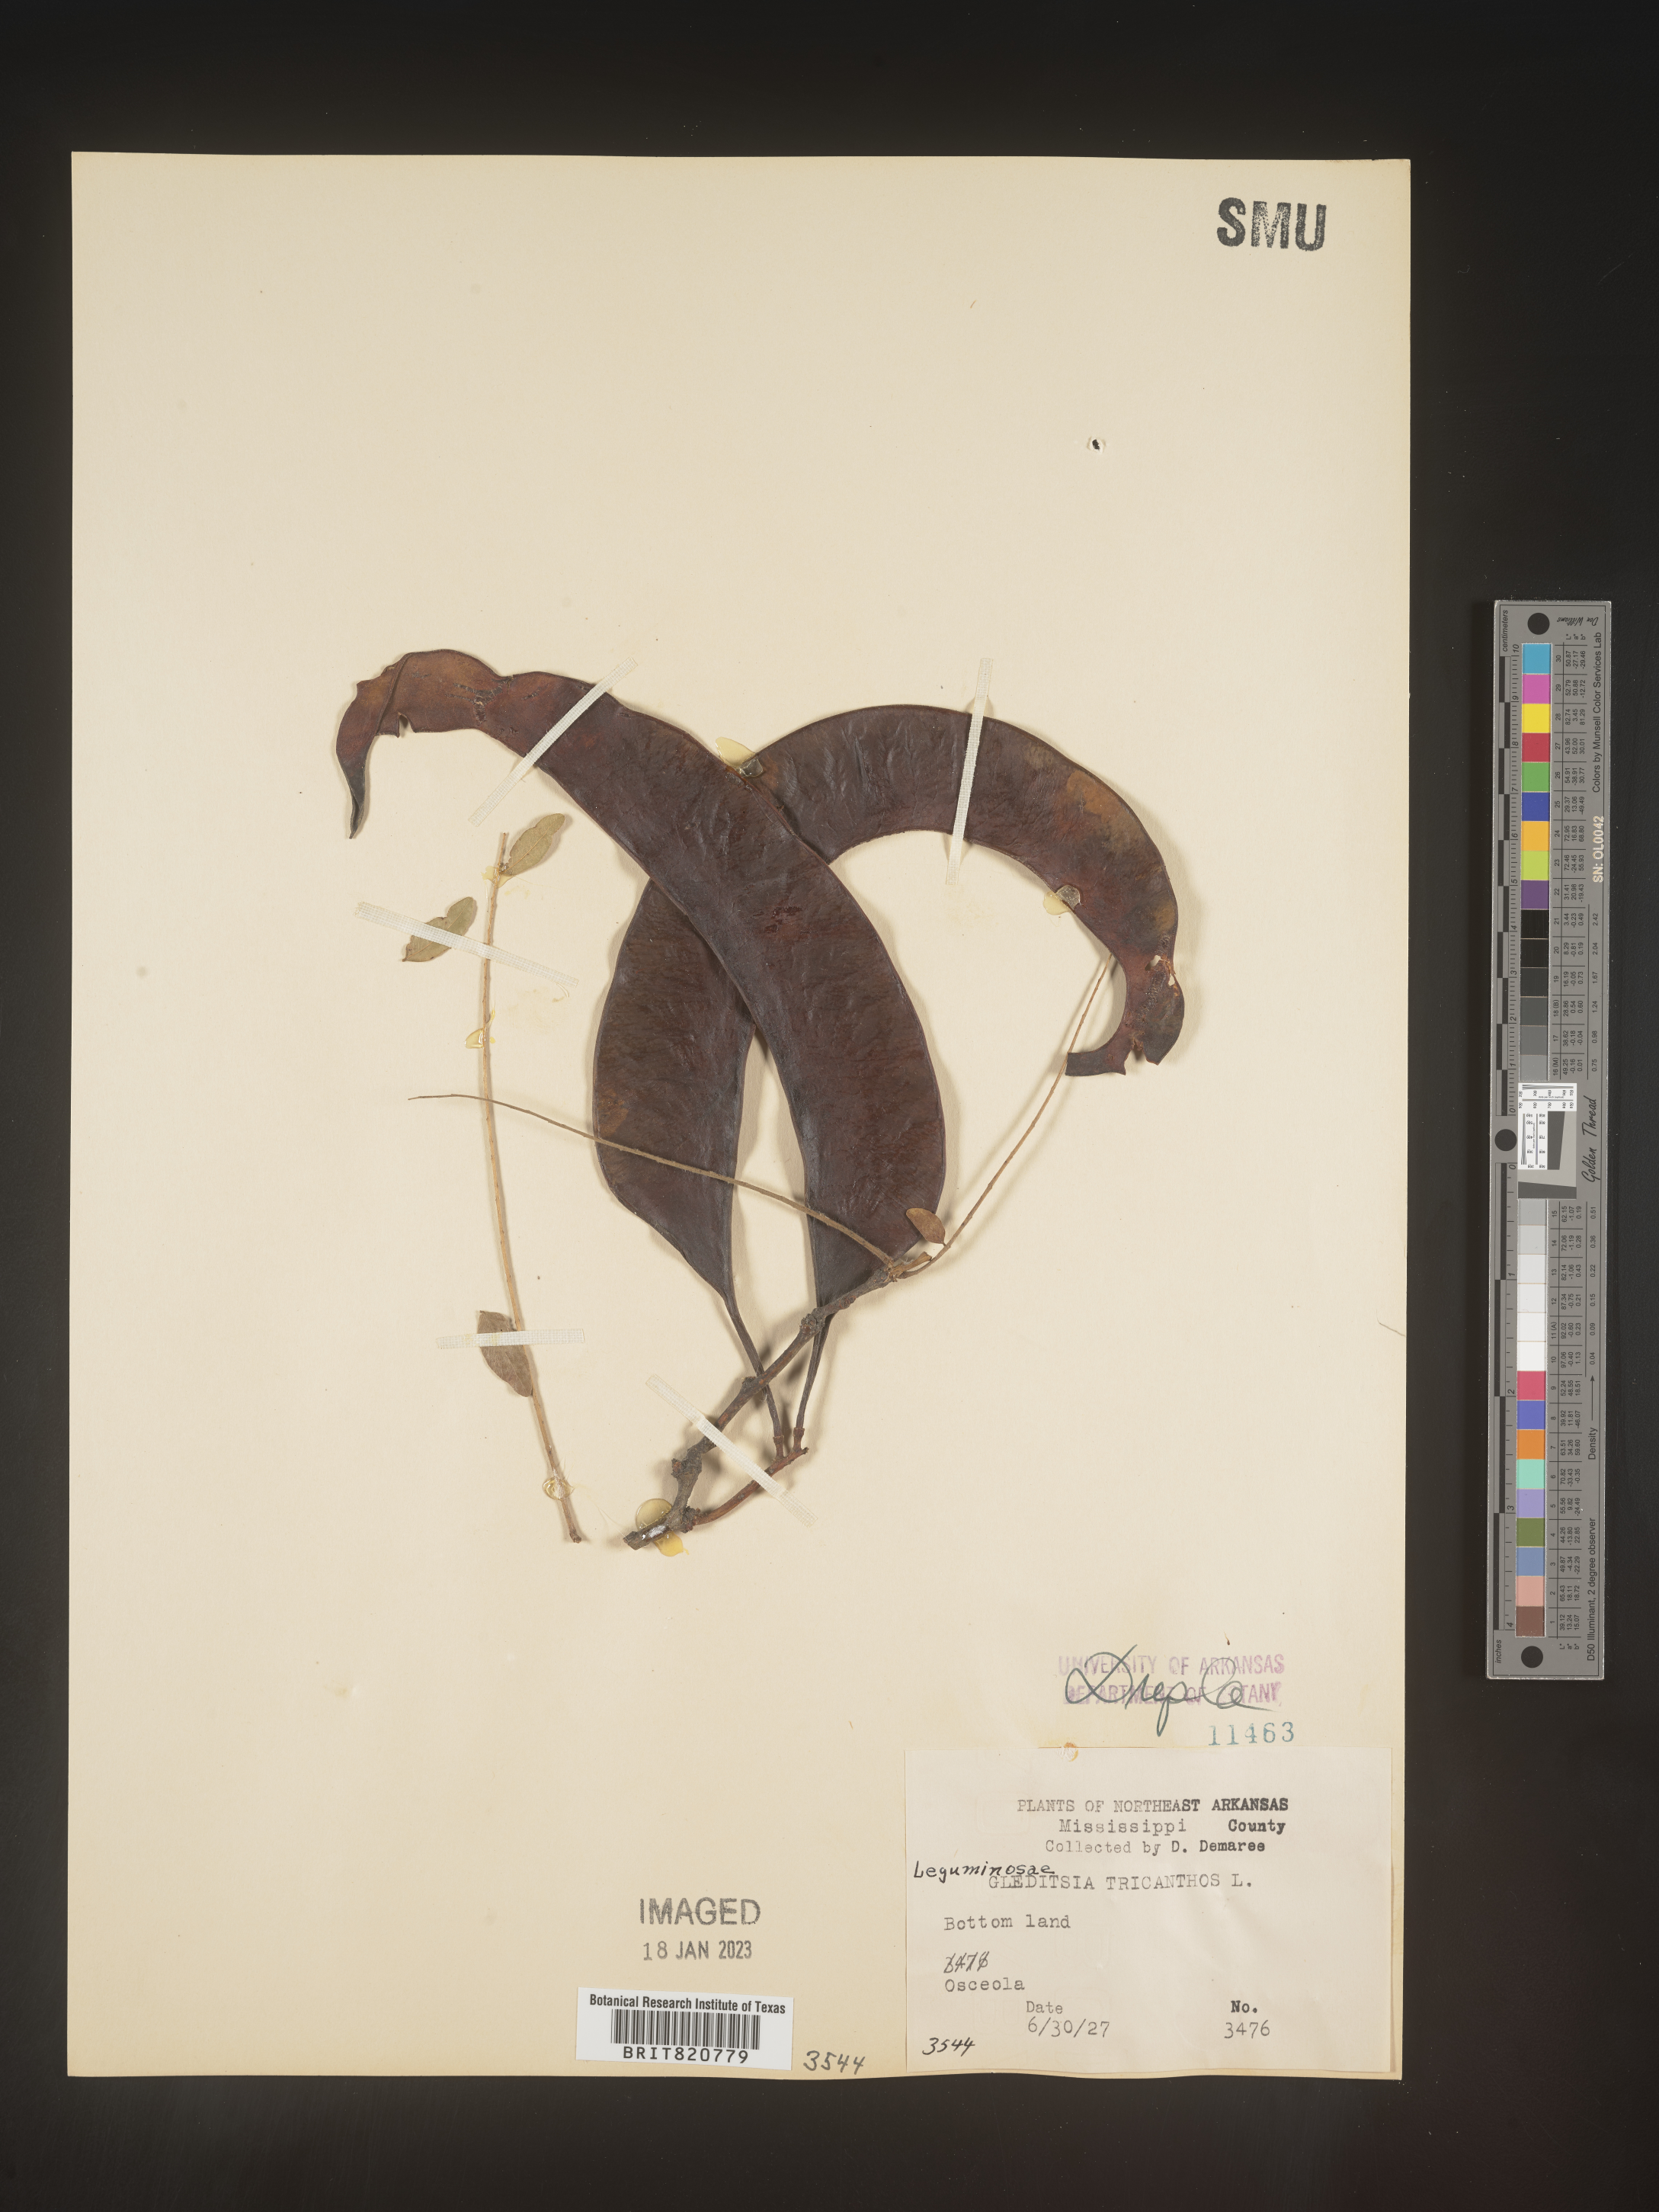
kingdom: Plantae
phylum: Tracheophyta
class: Magnoliopsida
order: Fabales
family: Fabaceae
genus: Gleditsia
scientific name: Gleditsia triacanthos
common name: Common honeylocust
